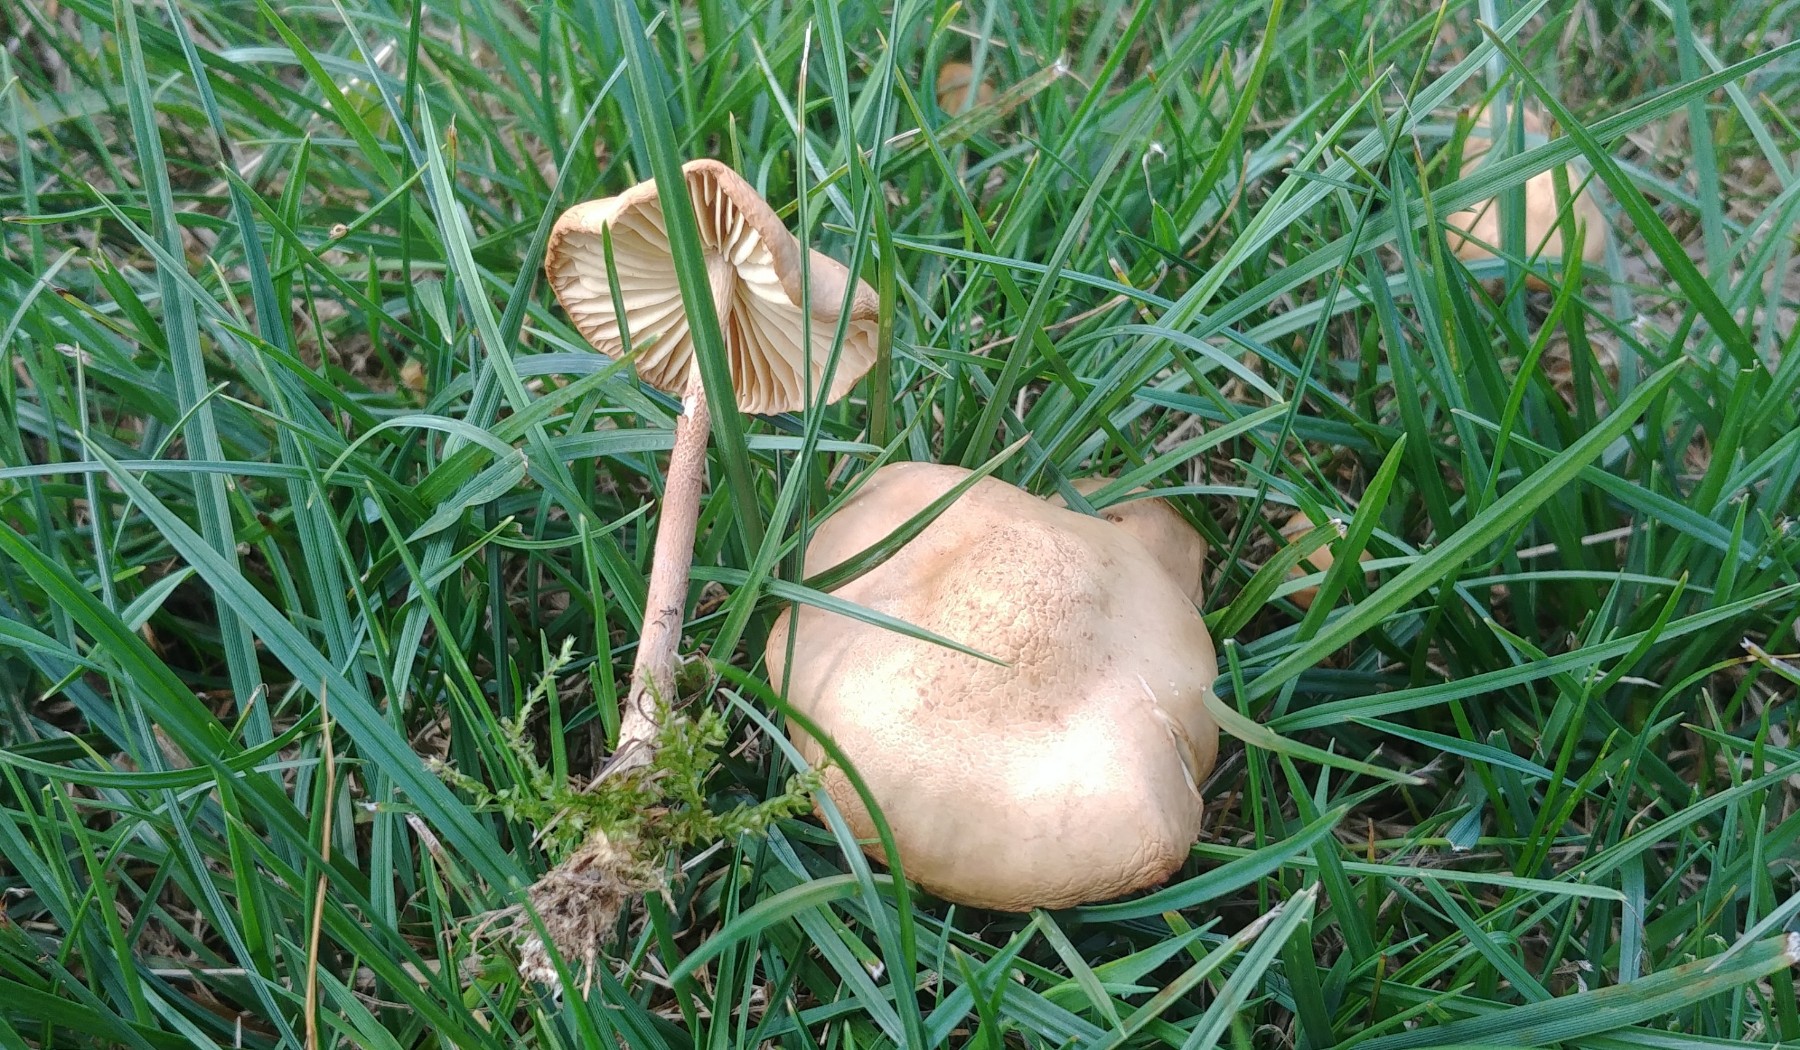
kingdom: Fungi
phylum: Basidiomycota
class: Agaricomycetes
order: Agaricales
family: Marasmiaceae
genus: Marasmius
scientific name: Marasmius oreades
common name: elledans-bruskhat
